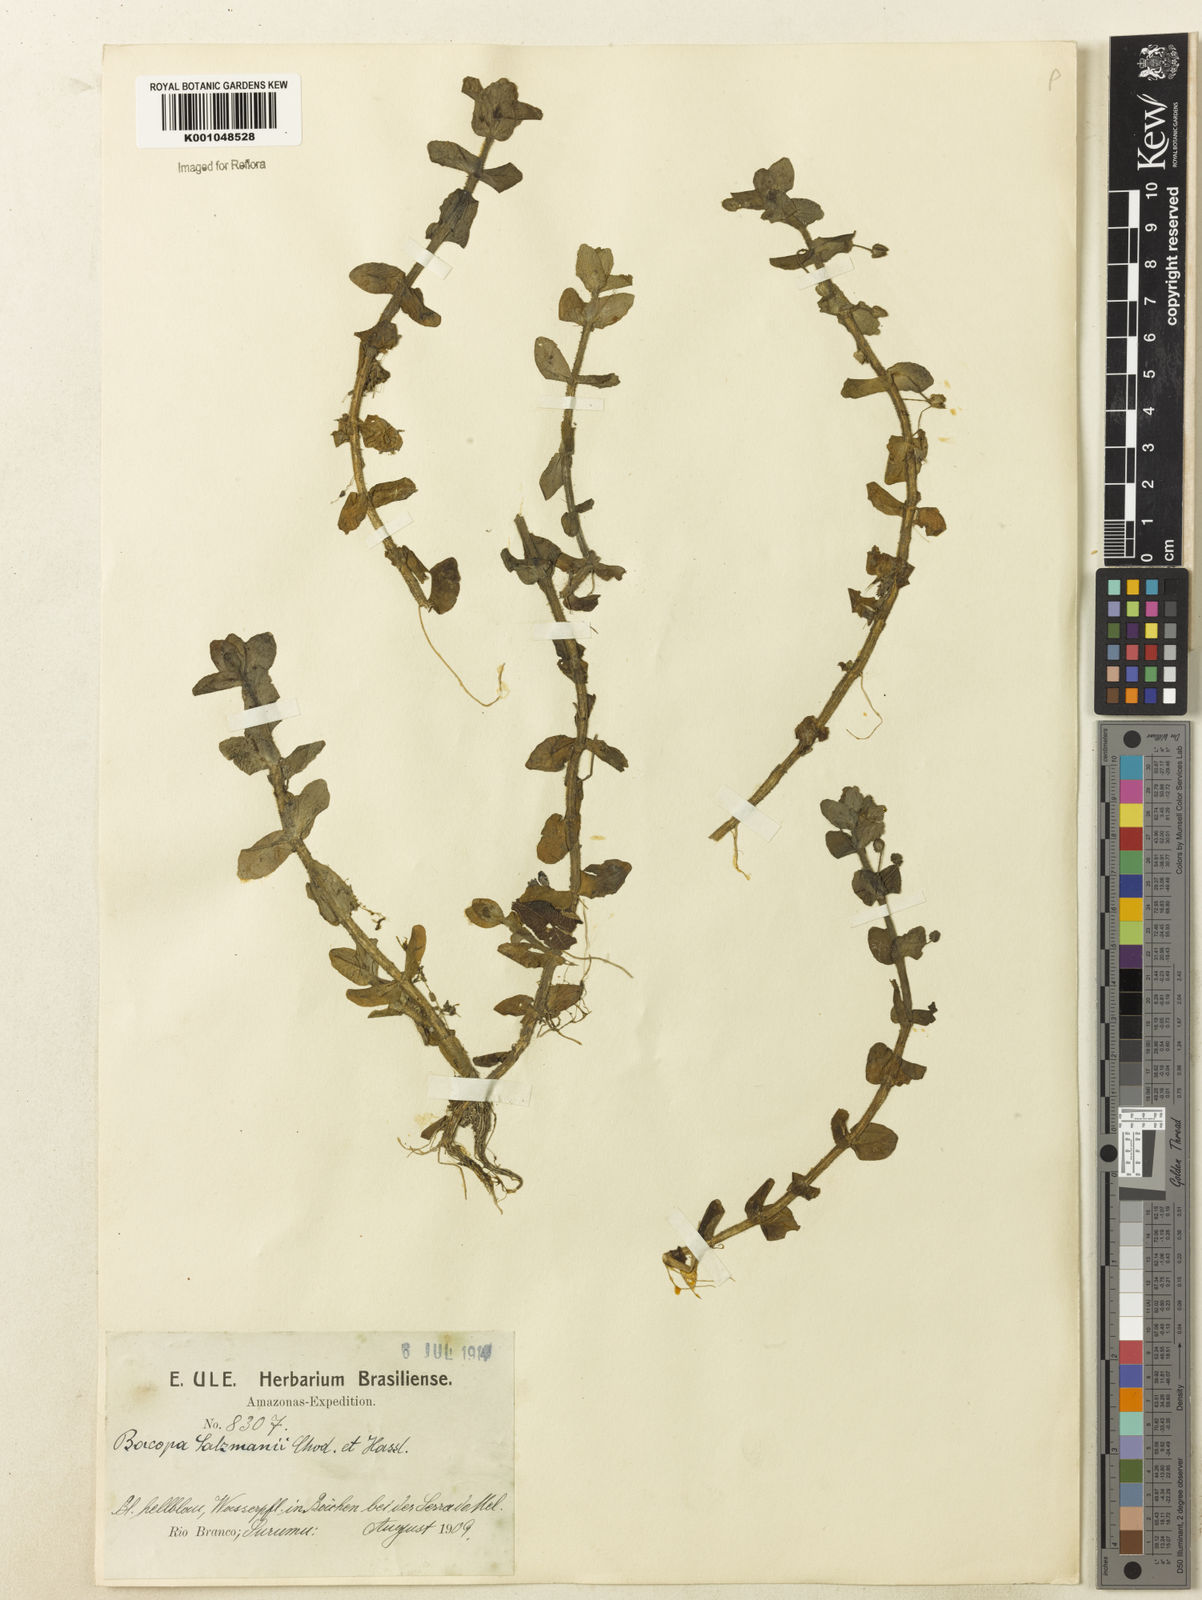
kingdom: Plantae
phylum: Tracheophyta
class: Magnoliopsida
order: Lamiales
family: Plantaginaceae
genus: Bacopa
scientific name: Bacopa salzmannii
